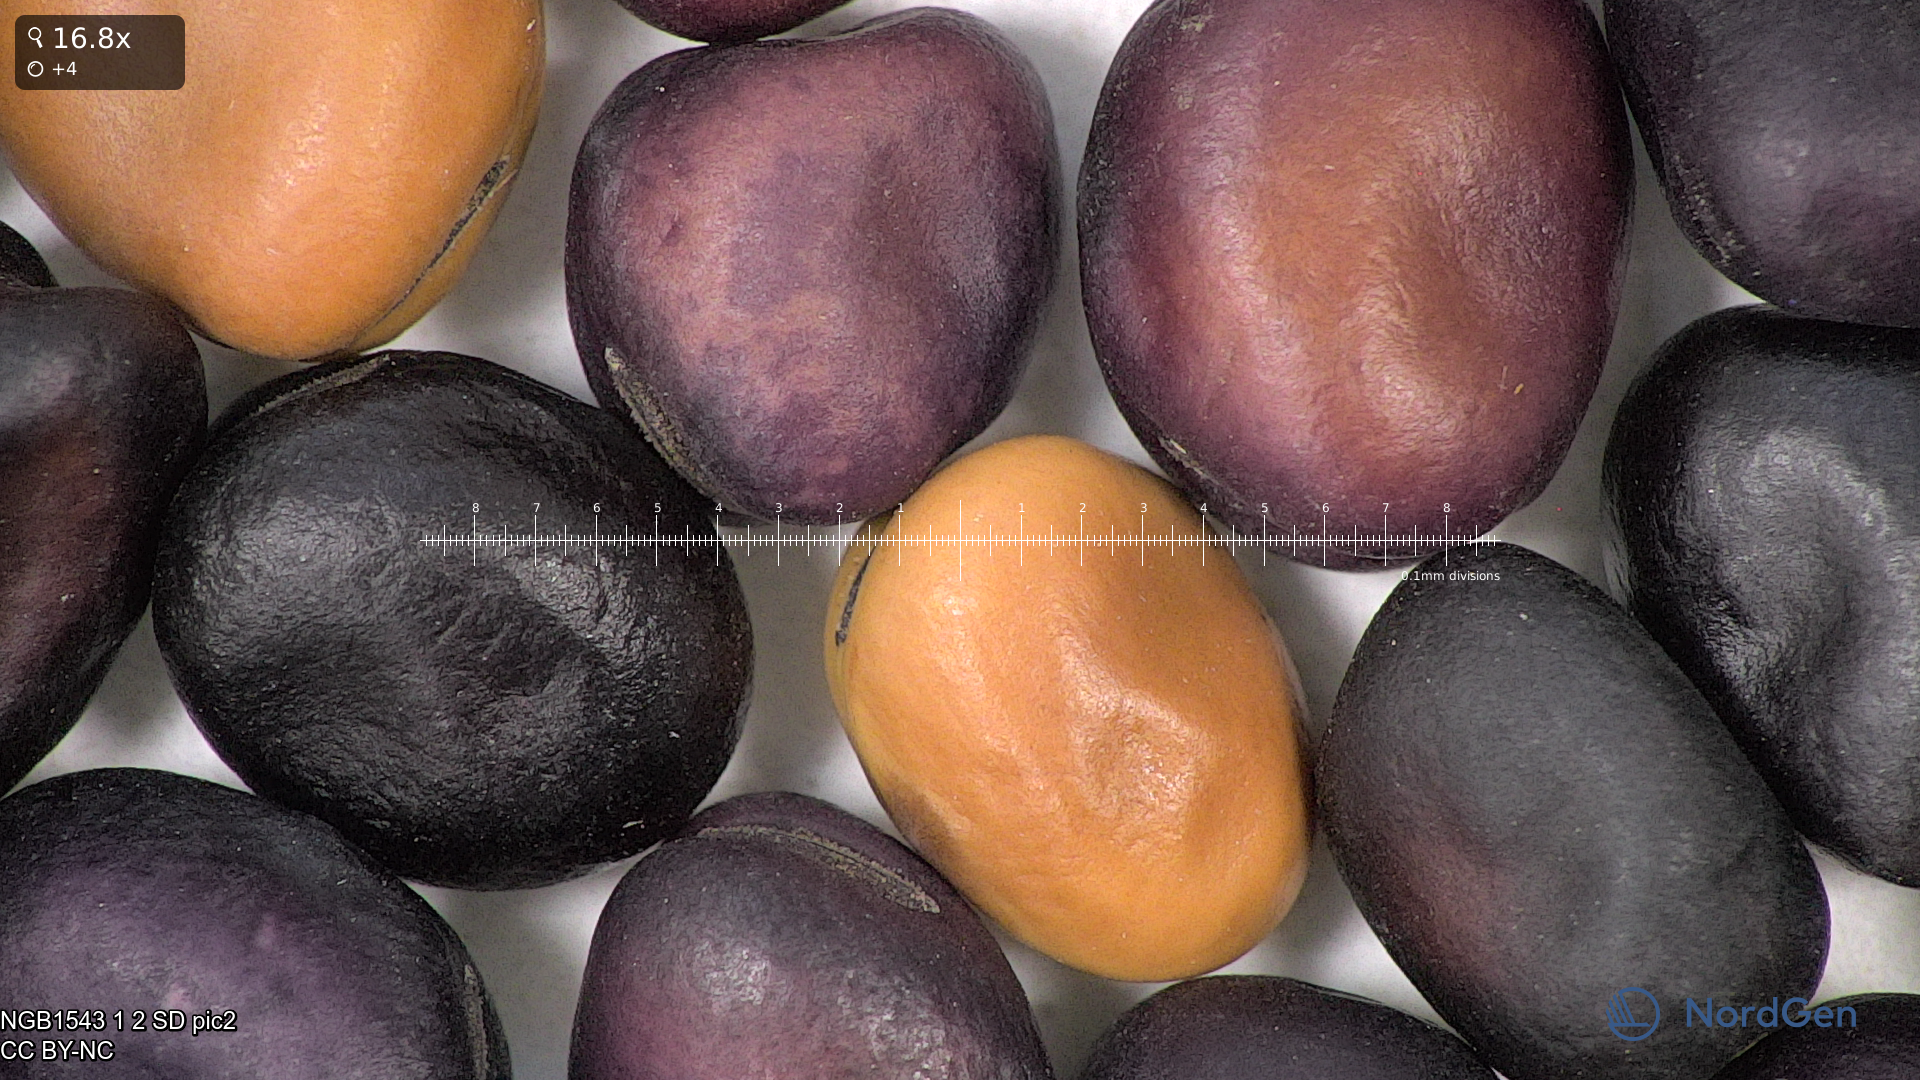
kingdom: Plantae
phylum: Tracheophyta
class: Magnoliopsida
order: Fabales
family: Fabaceae
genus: Vicia
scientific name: Vicia faba
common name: Broad bean
